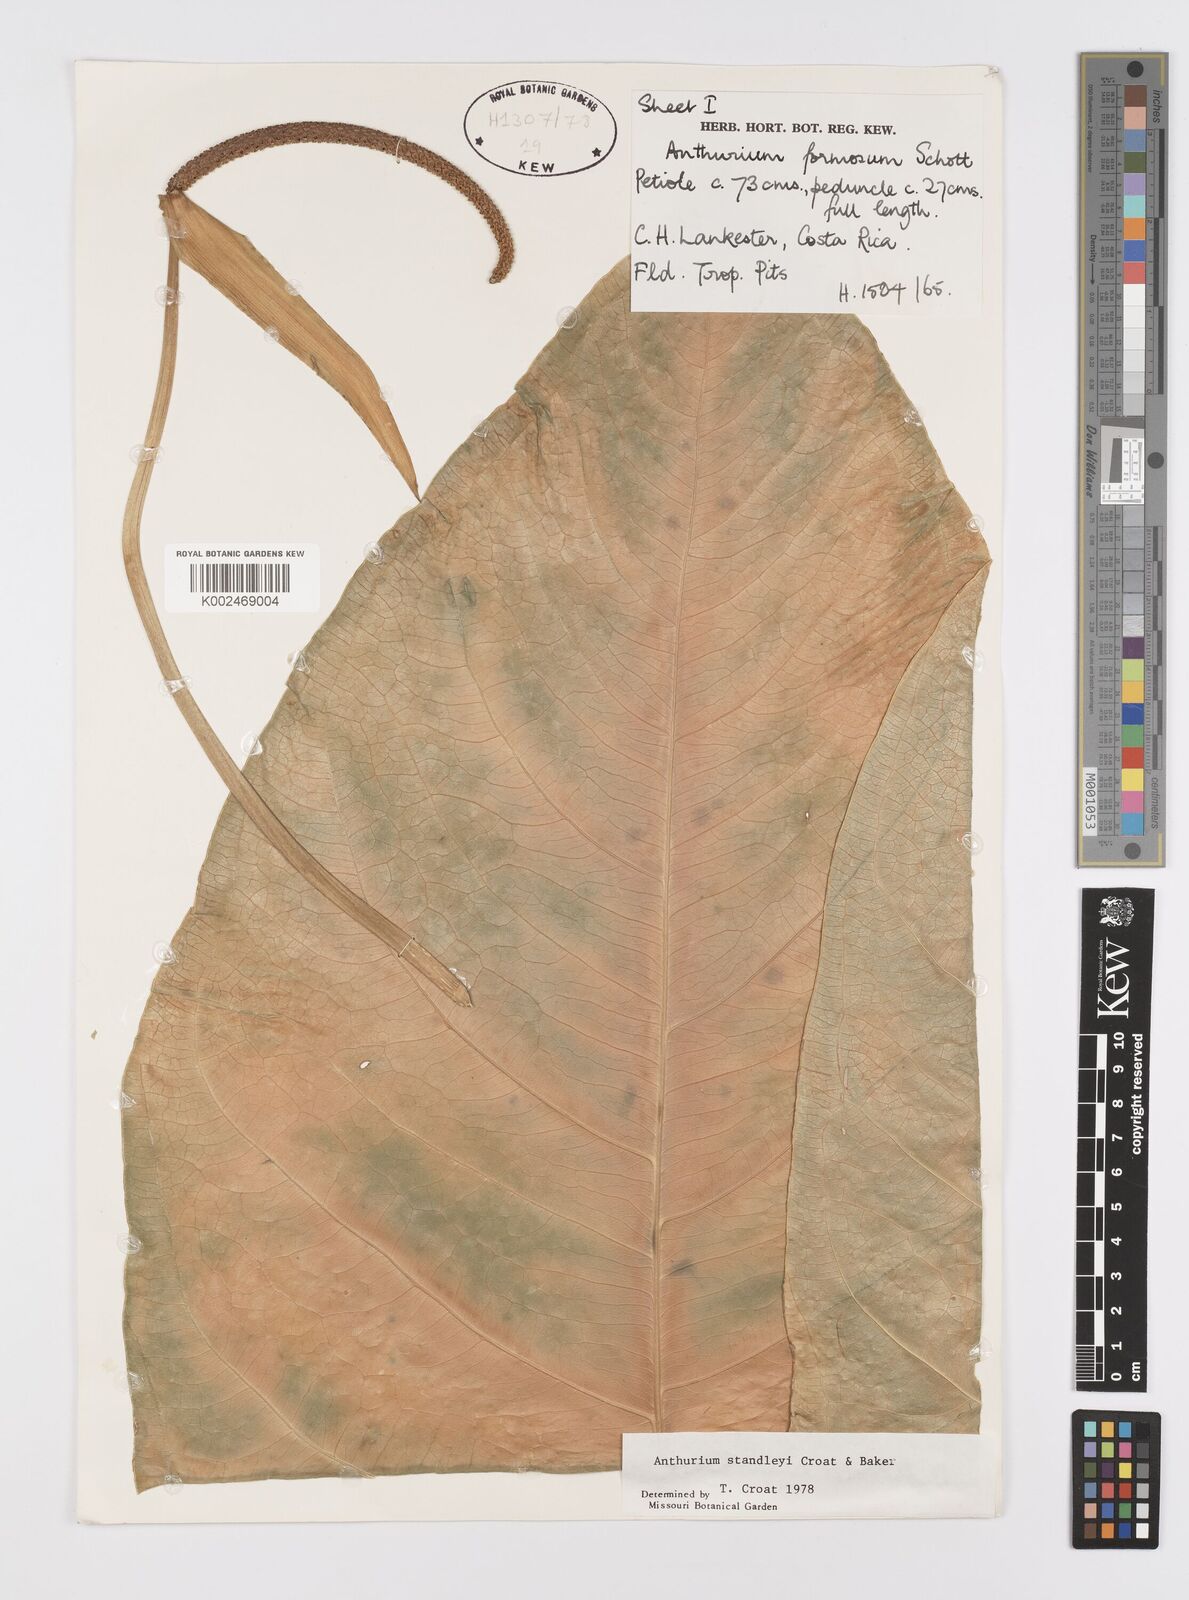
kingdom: Plantae
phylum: Tracheophyta
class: Liliopsida
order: Alismatales
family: Araceae
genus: Anthurium
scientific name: Anthurium standleyi
